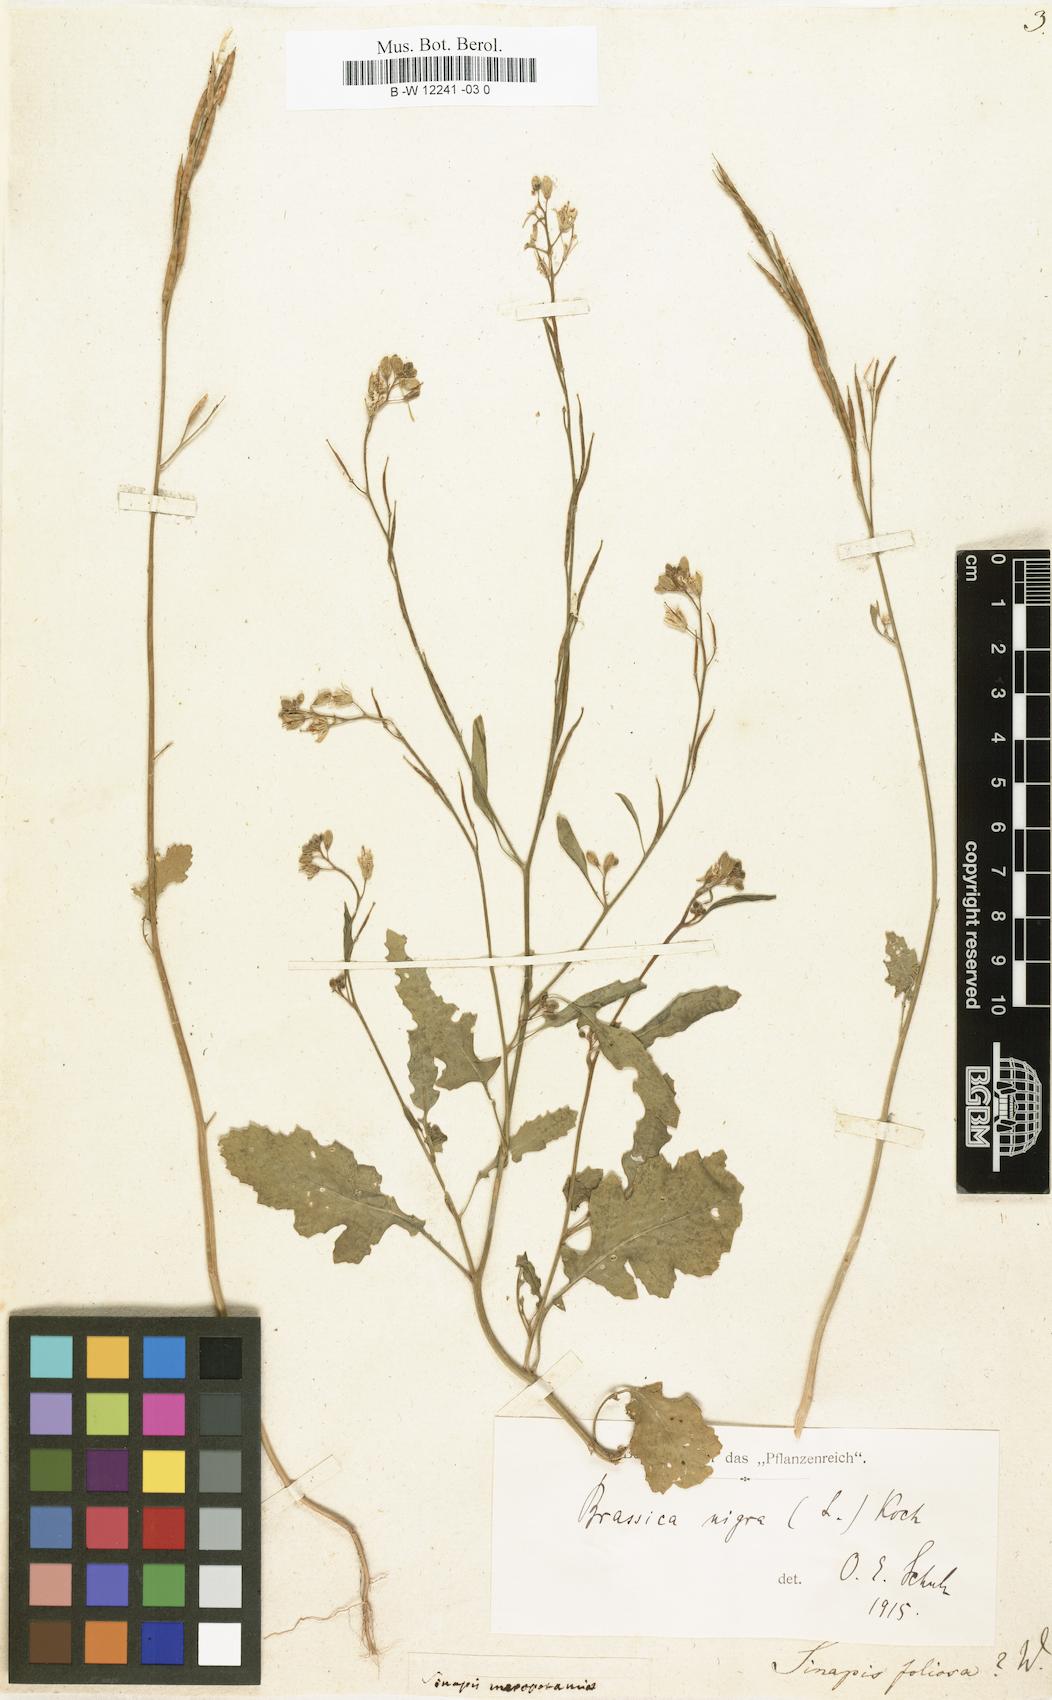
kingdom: Plantae
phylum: Tracheophyta
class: Magnoliopsida
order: Brassicales
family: Brassicaceae
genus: Sinapis
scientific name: Sinapis alba
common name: White mustard
